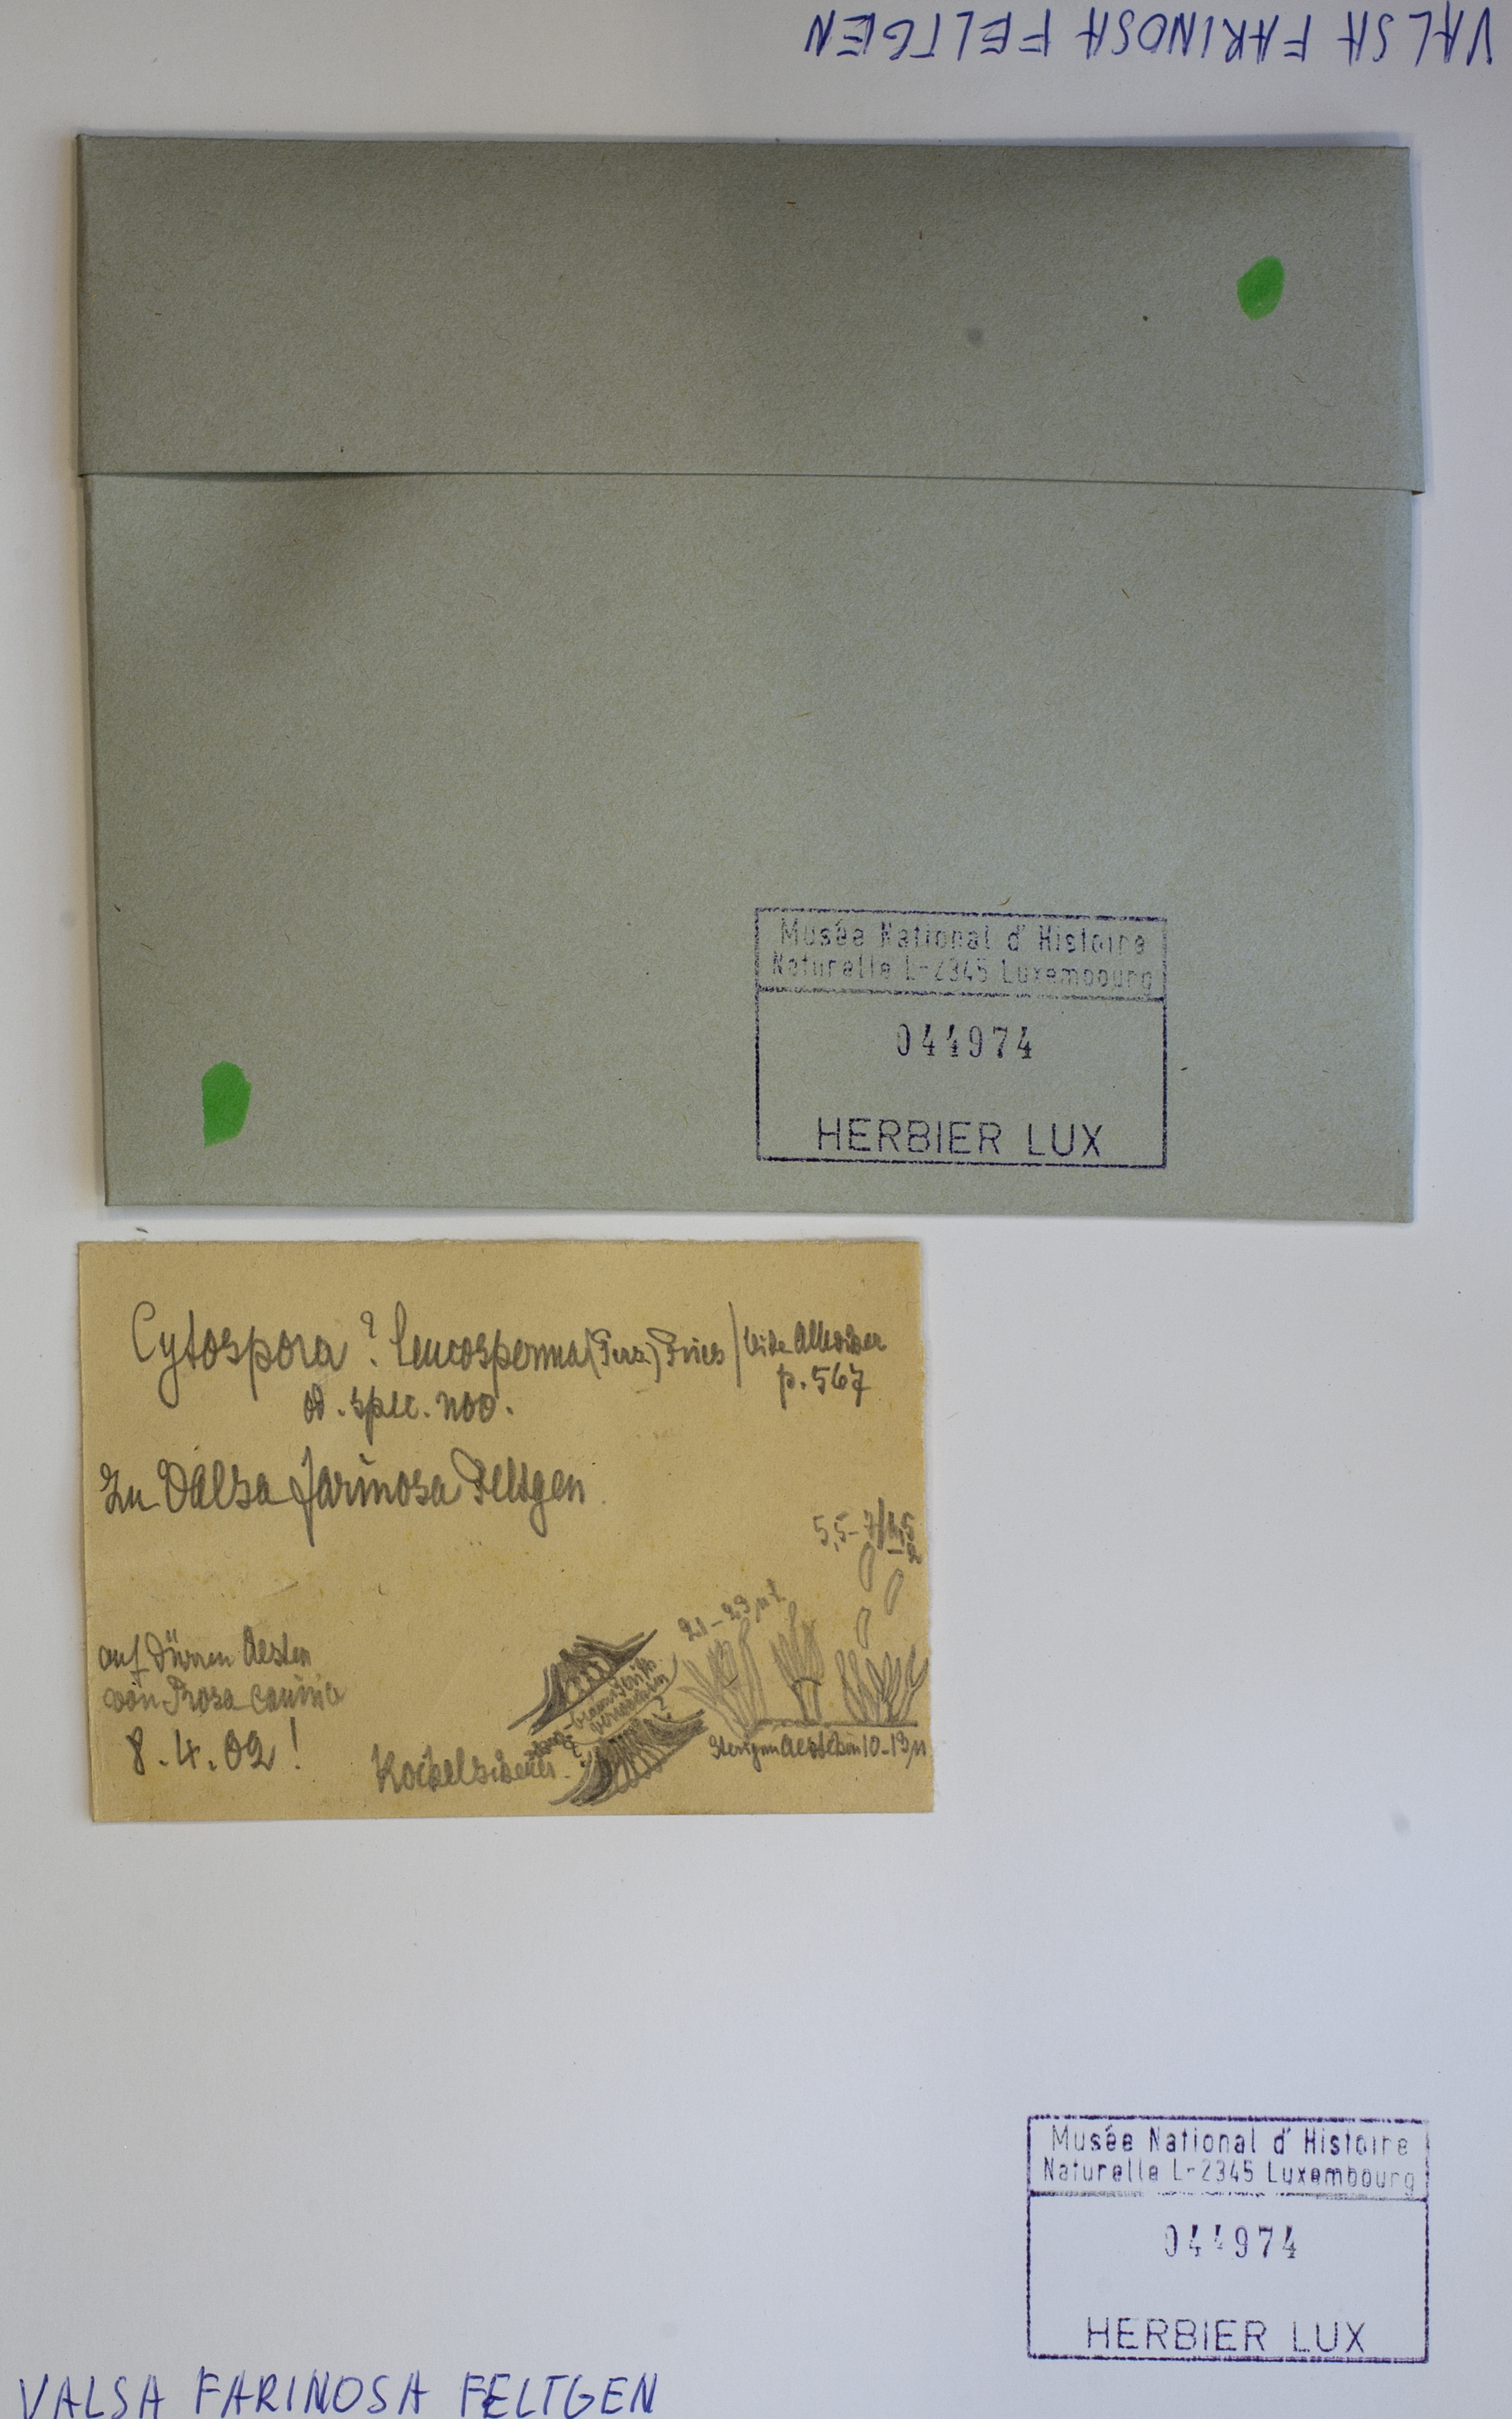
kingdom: Fungi
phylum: Ascomycota
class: Sordariomycetes
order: Diaporthales
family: Harknessiaceae
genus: Harknessia
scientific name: Harknessia farinosa
